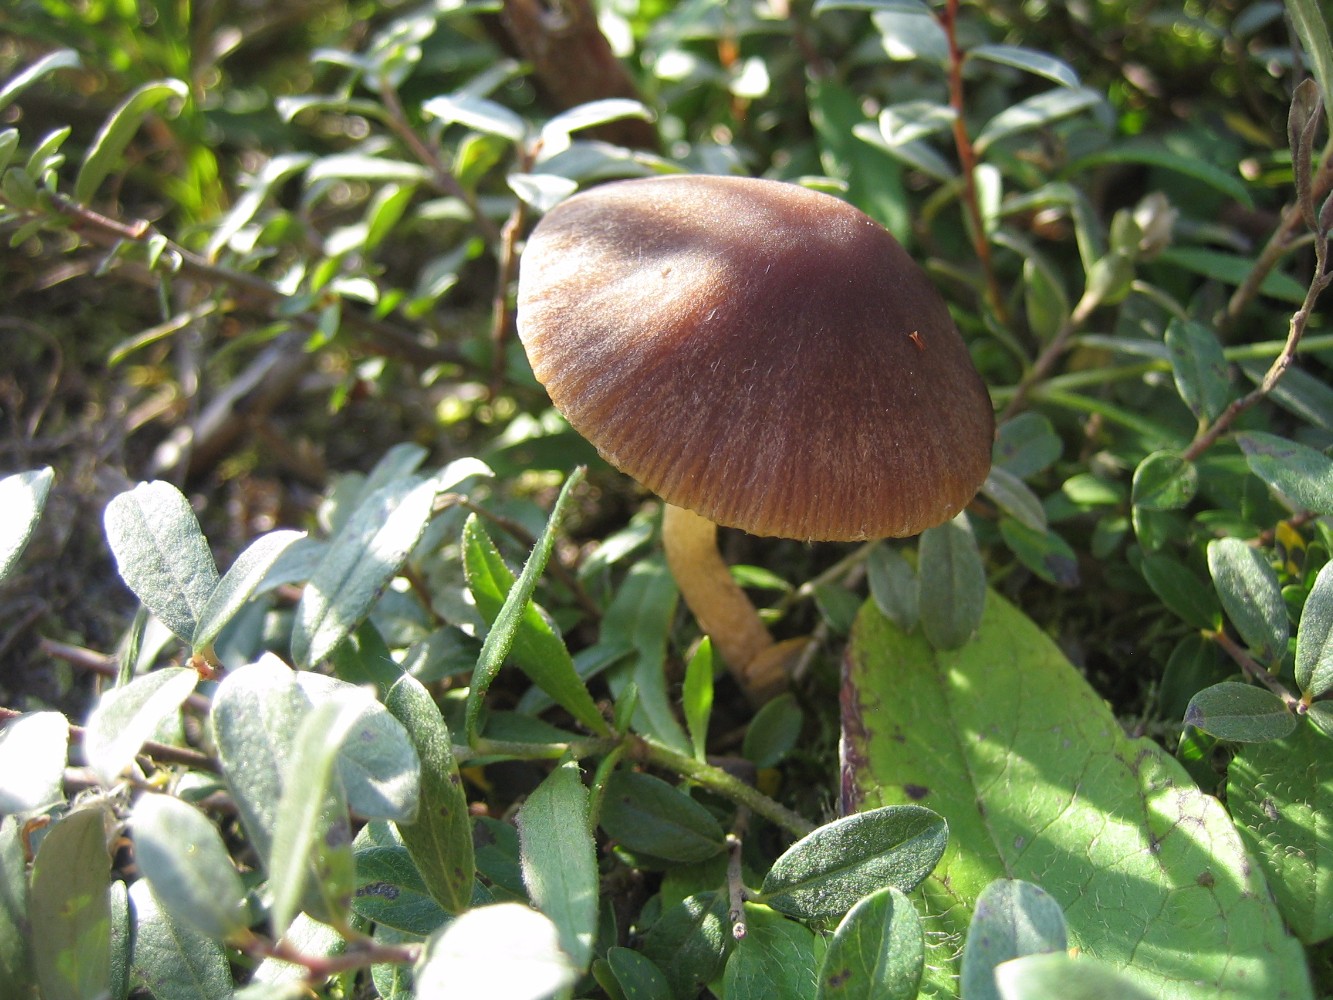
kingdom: Fungi
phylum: Basidiomycota
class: Agaricomycetes
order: Agaricales
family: Psathyrellaceae
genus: Psathyrella
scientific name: Psathyrella
